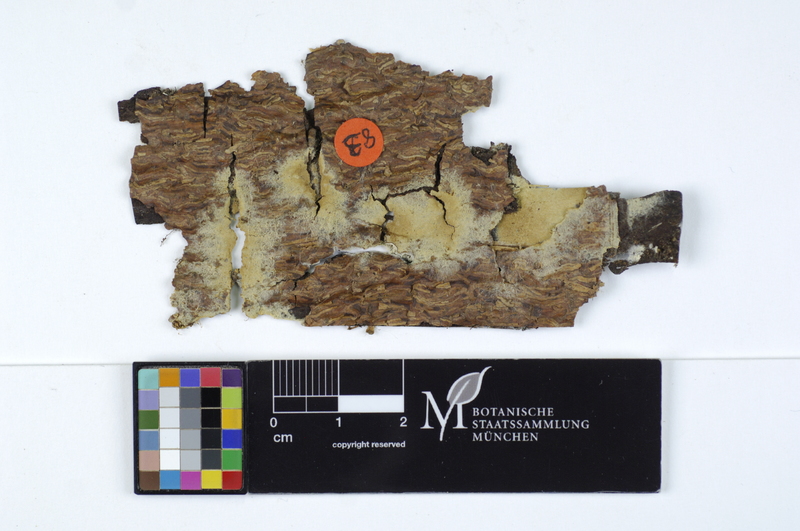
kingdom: Plantae
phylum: Tracheophyta
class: Pinopsida
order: Pinales
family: Pinaceae
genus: Picea
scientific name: Picea
